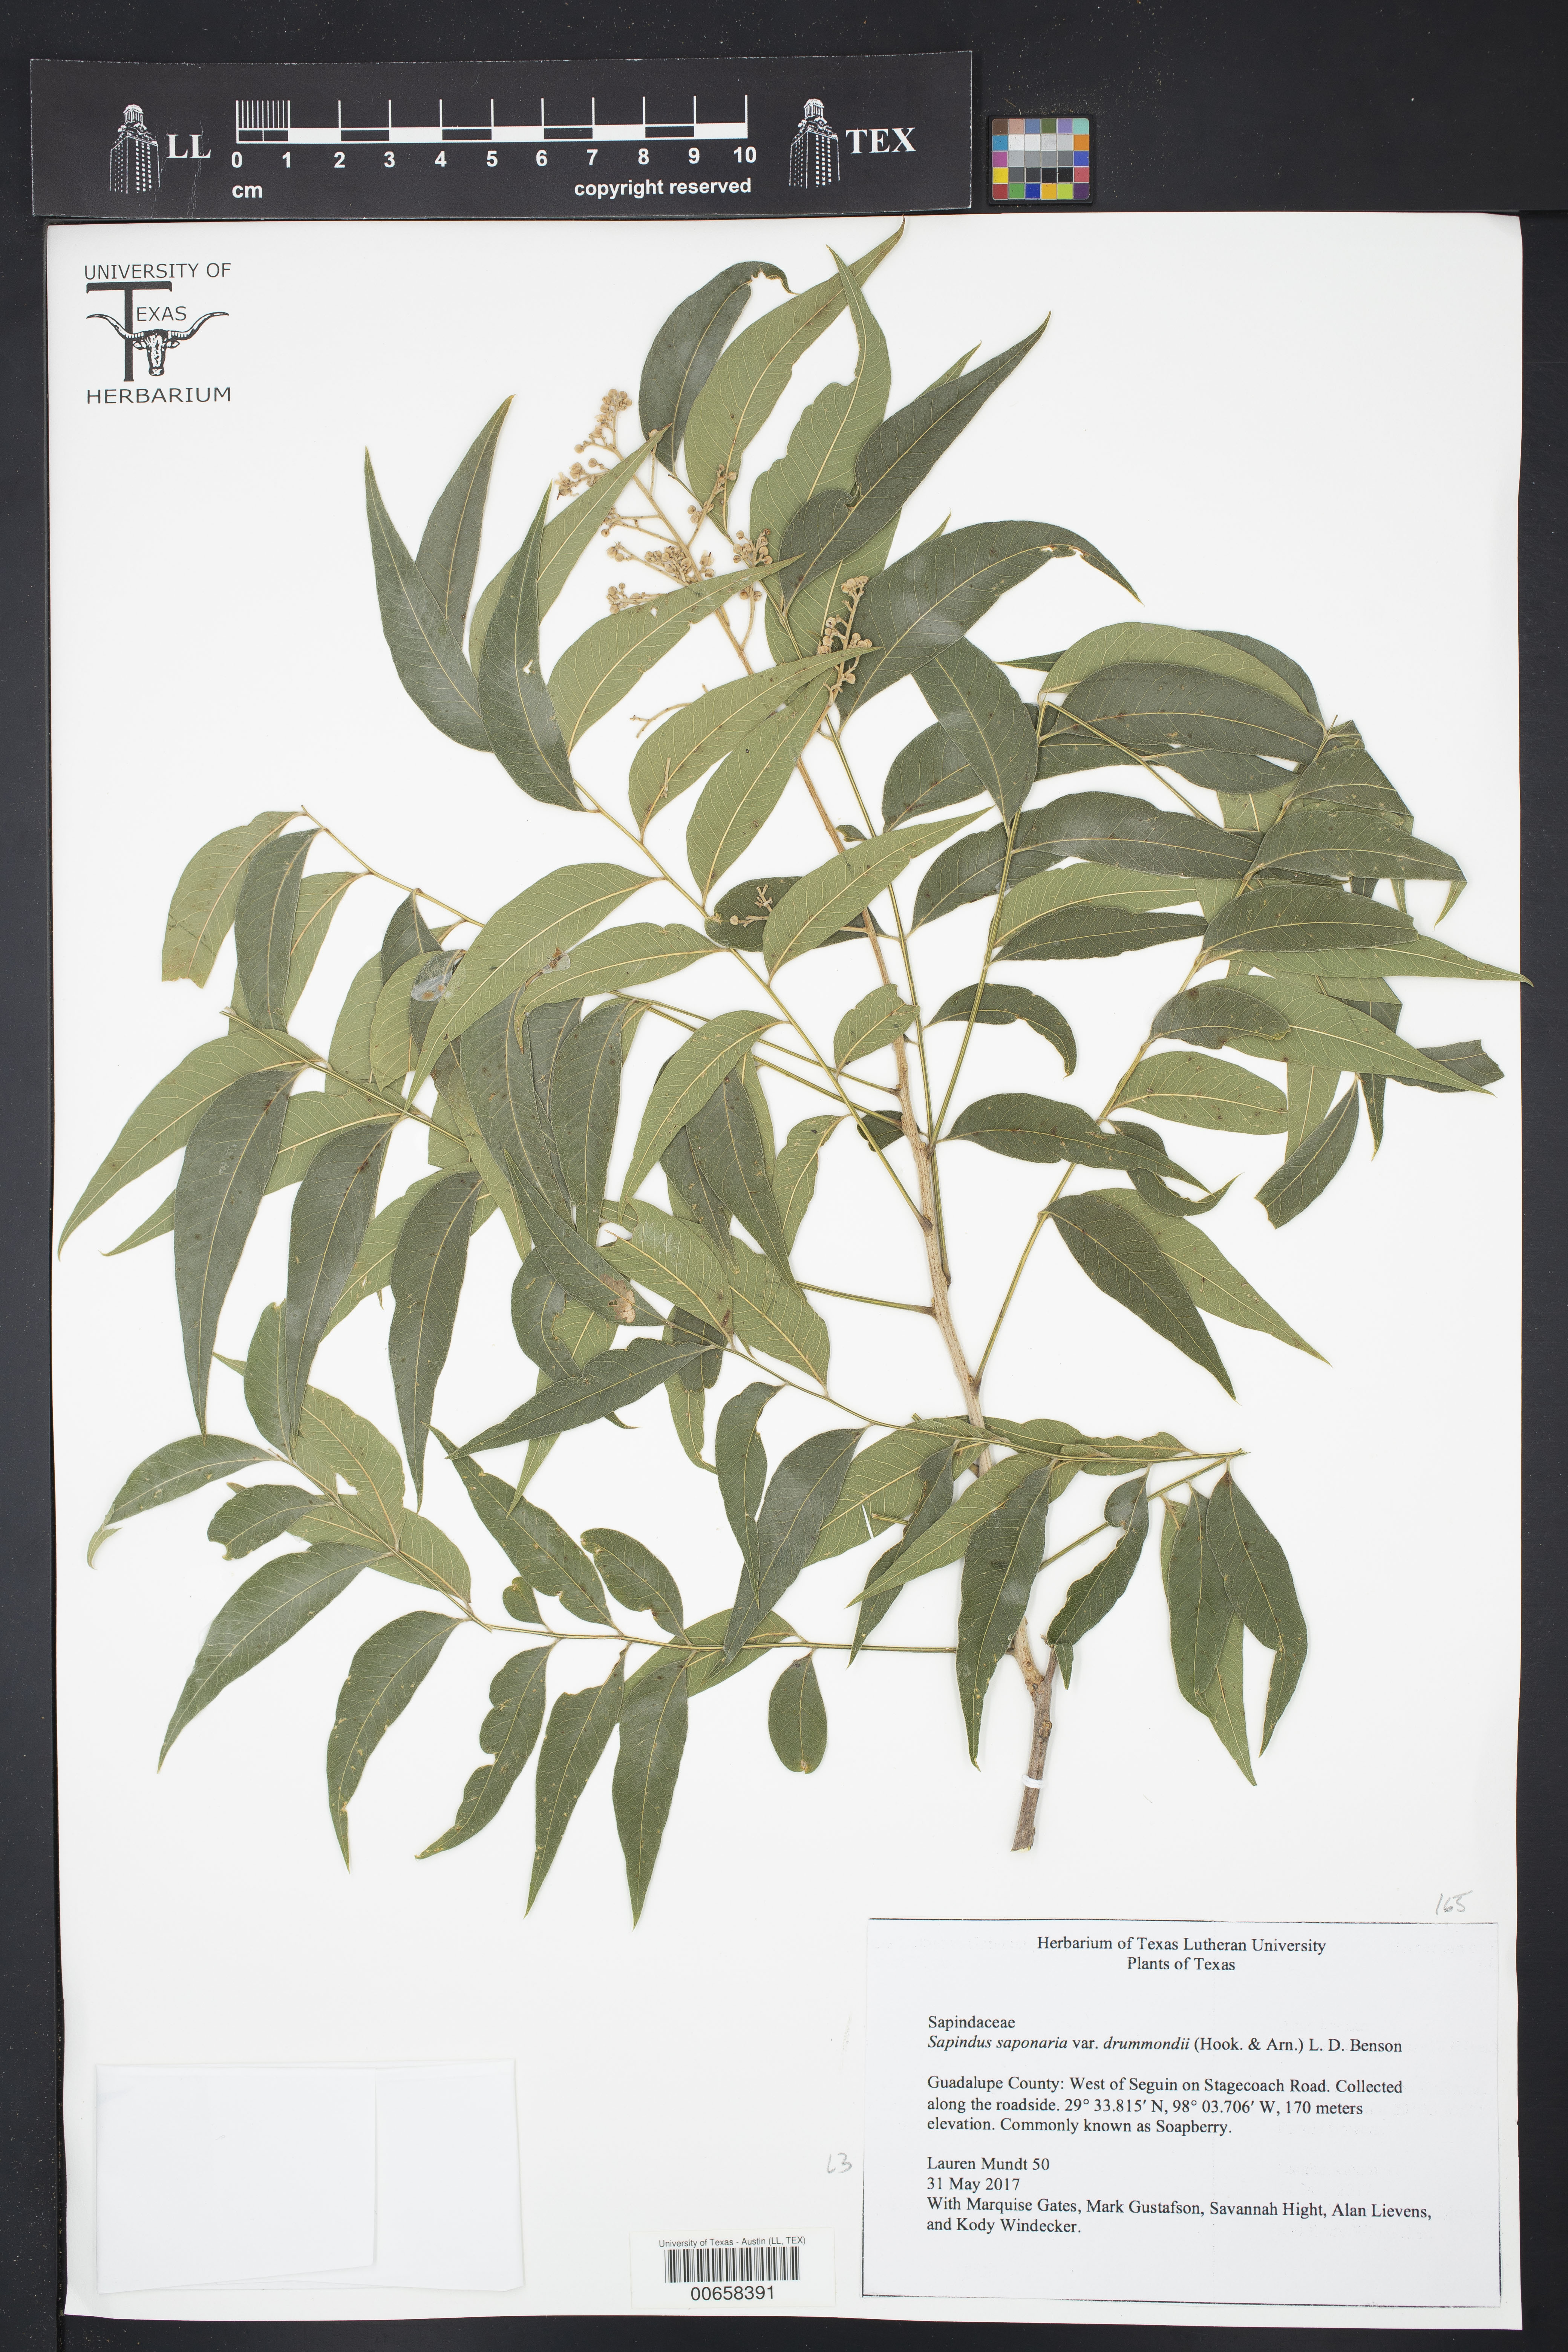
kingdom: Plantae
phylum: Tracheophyta
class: Magnoliopsida
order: Sapindales
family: Sapindaceae
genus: Sapindus
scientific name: Sapindus drummondii
